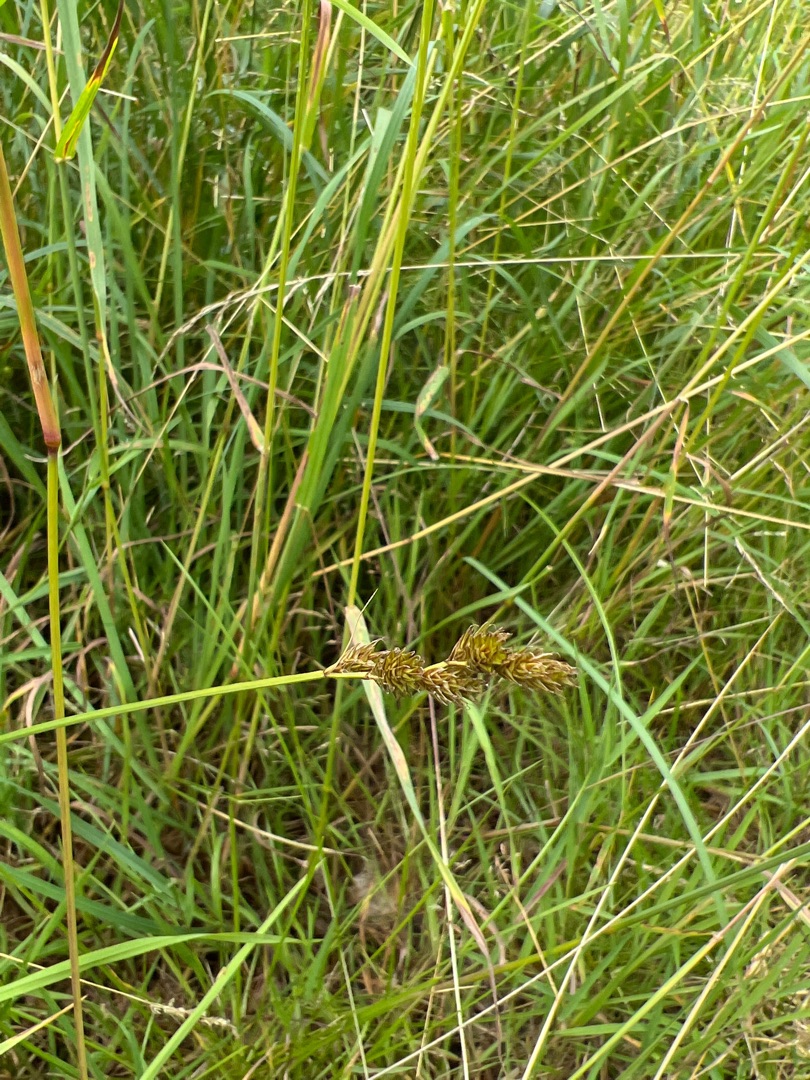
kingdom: Plantae
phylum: Tracheophyta
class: Liliopsida
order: Poales
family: Cyperaceae
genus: Carex
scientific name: Carex leporina
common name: Hare-star
